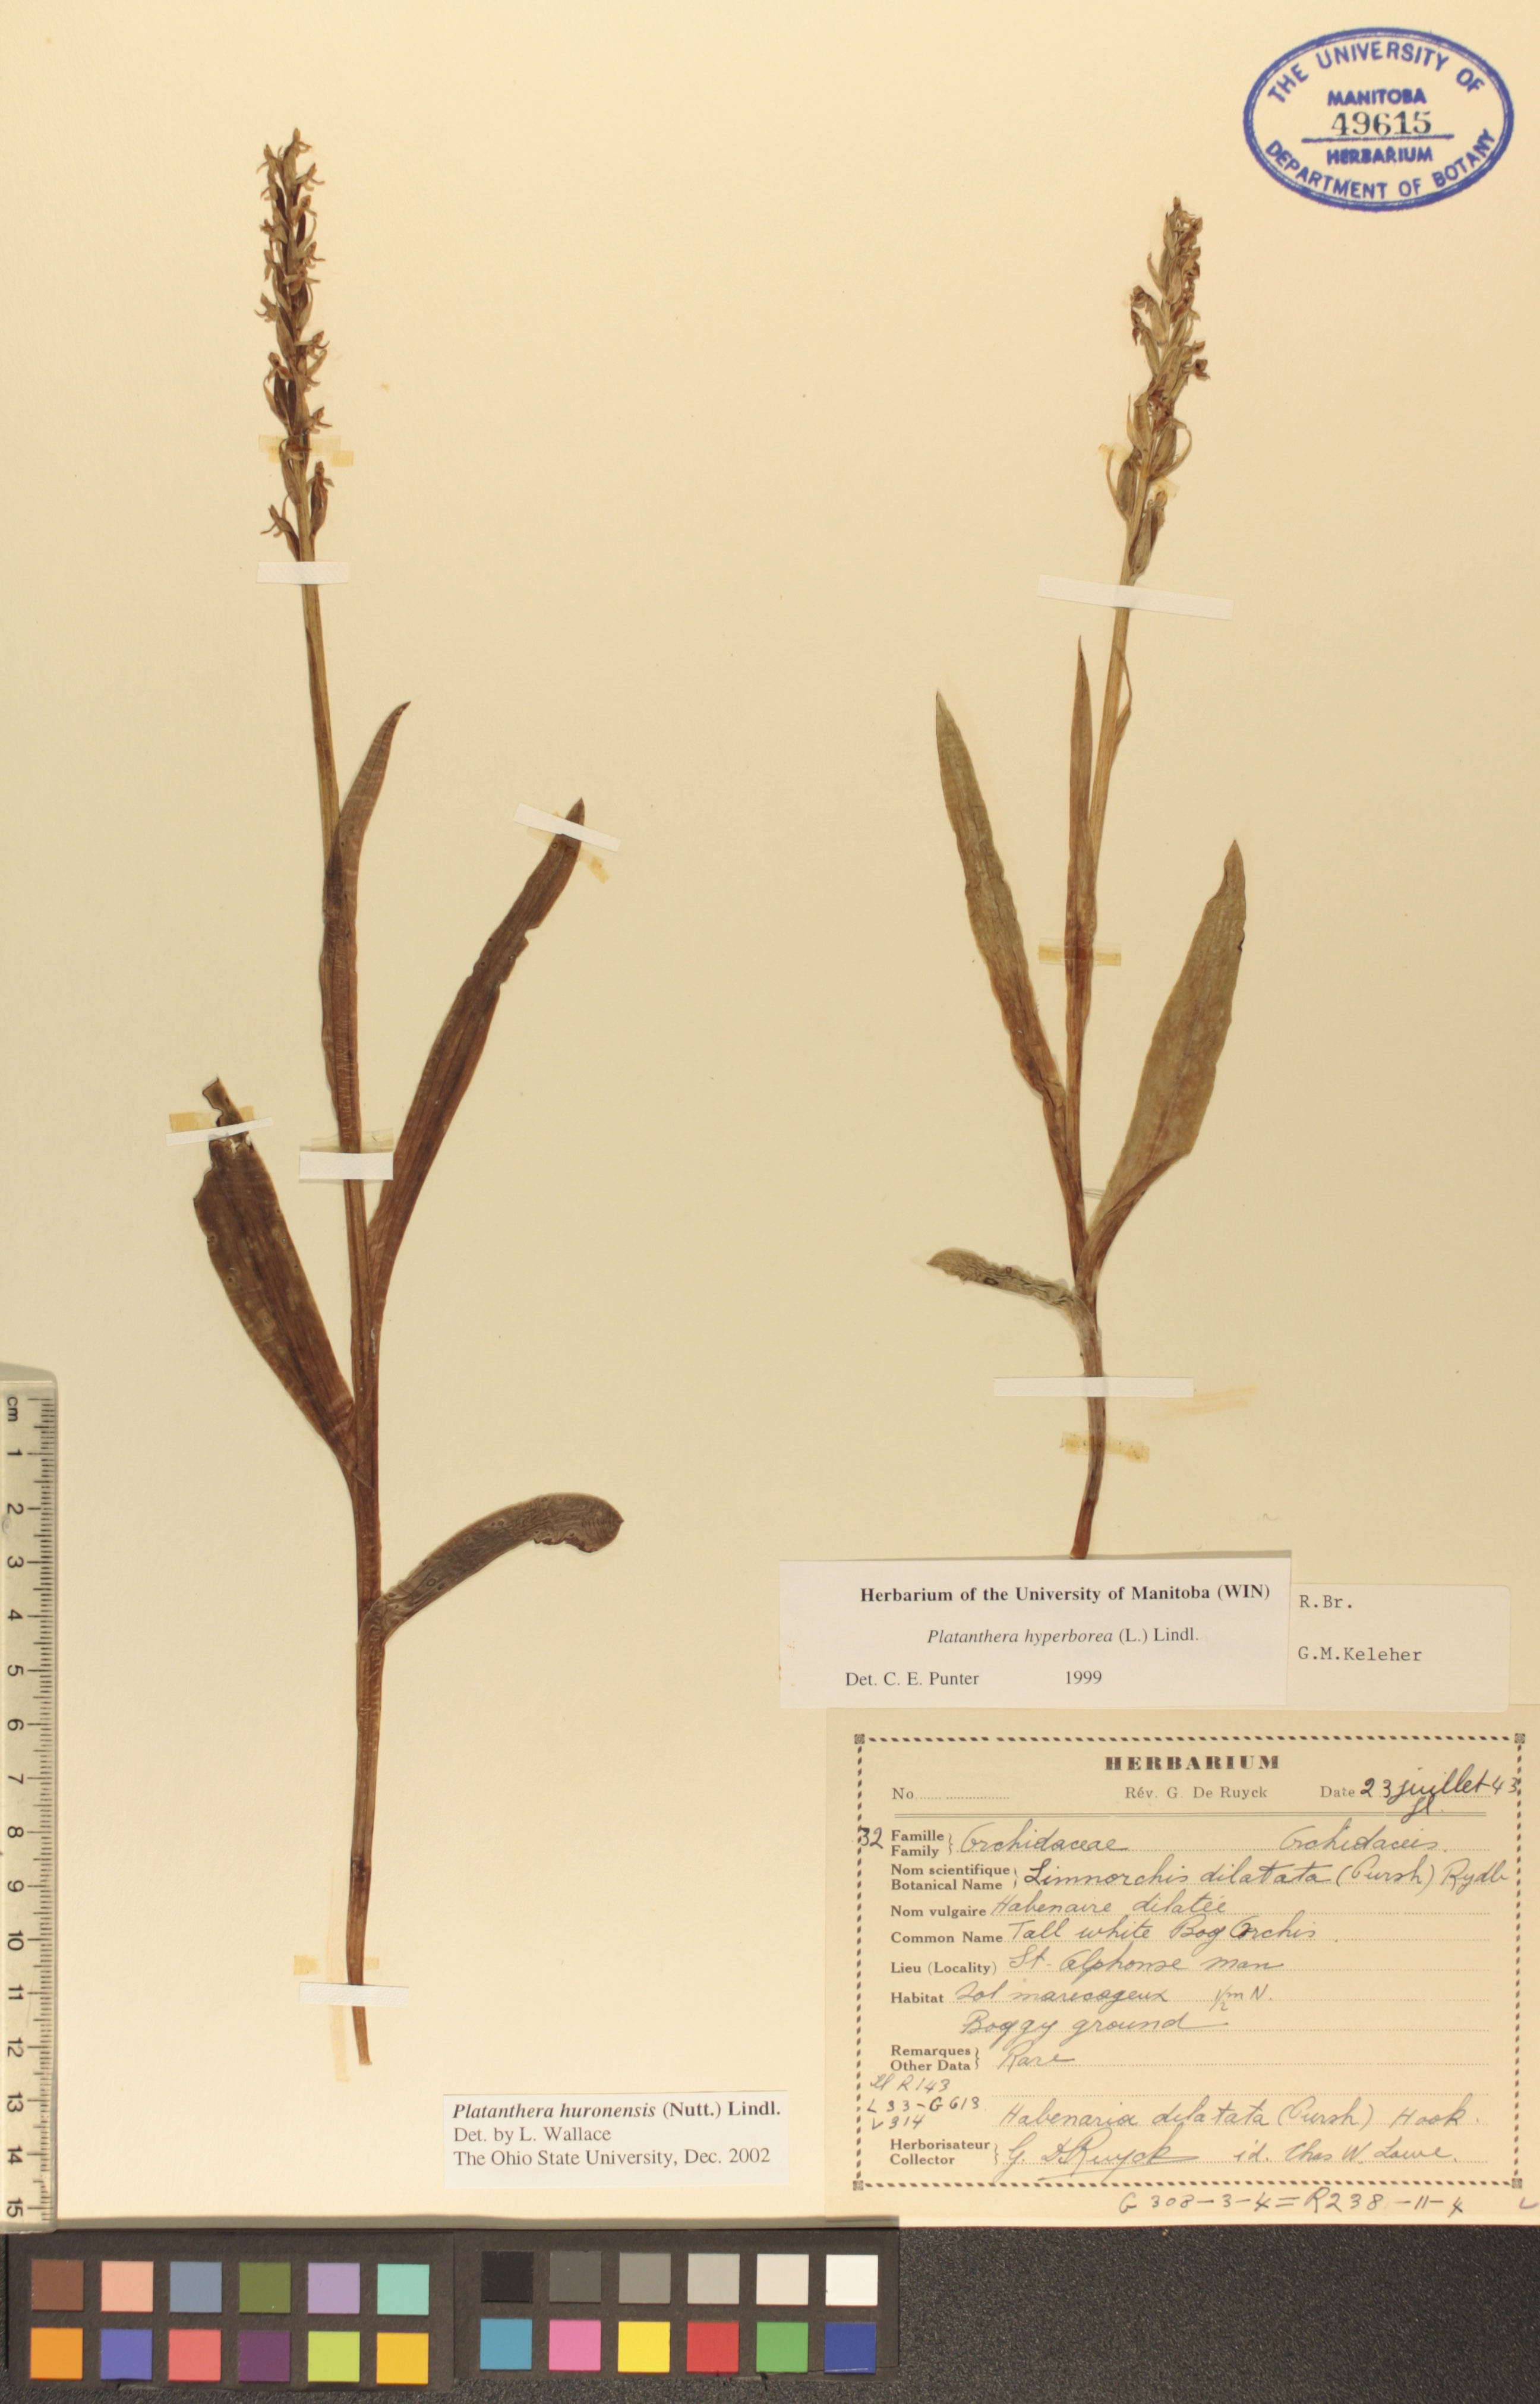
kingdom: Plantae
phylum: Tracheophyta
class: Liliopsida
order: Asparagales
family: Orchidaceae
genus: Platanthera
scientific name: Platanthera huronensis
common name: Fragrant green orchid
